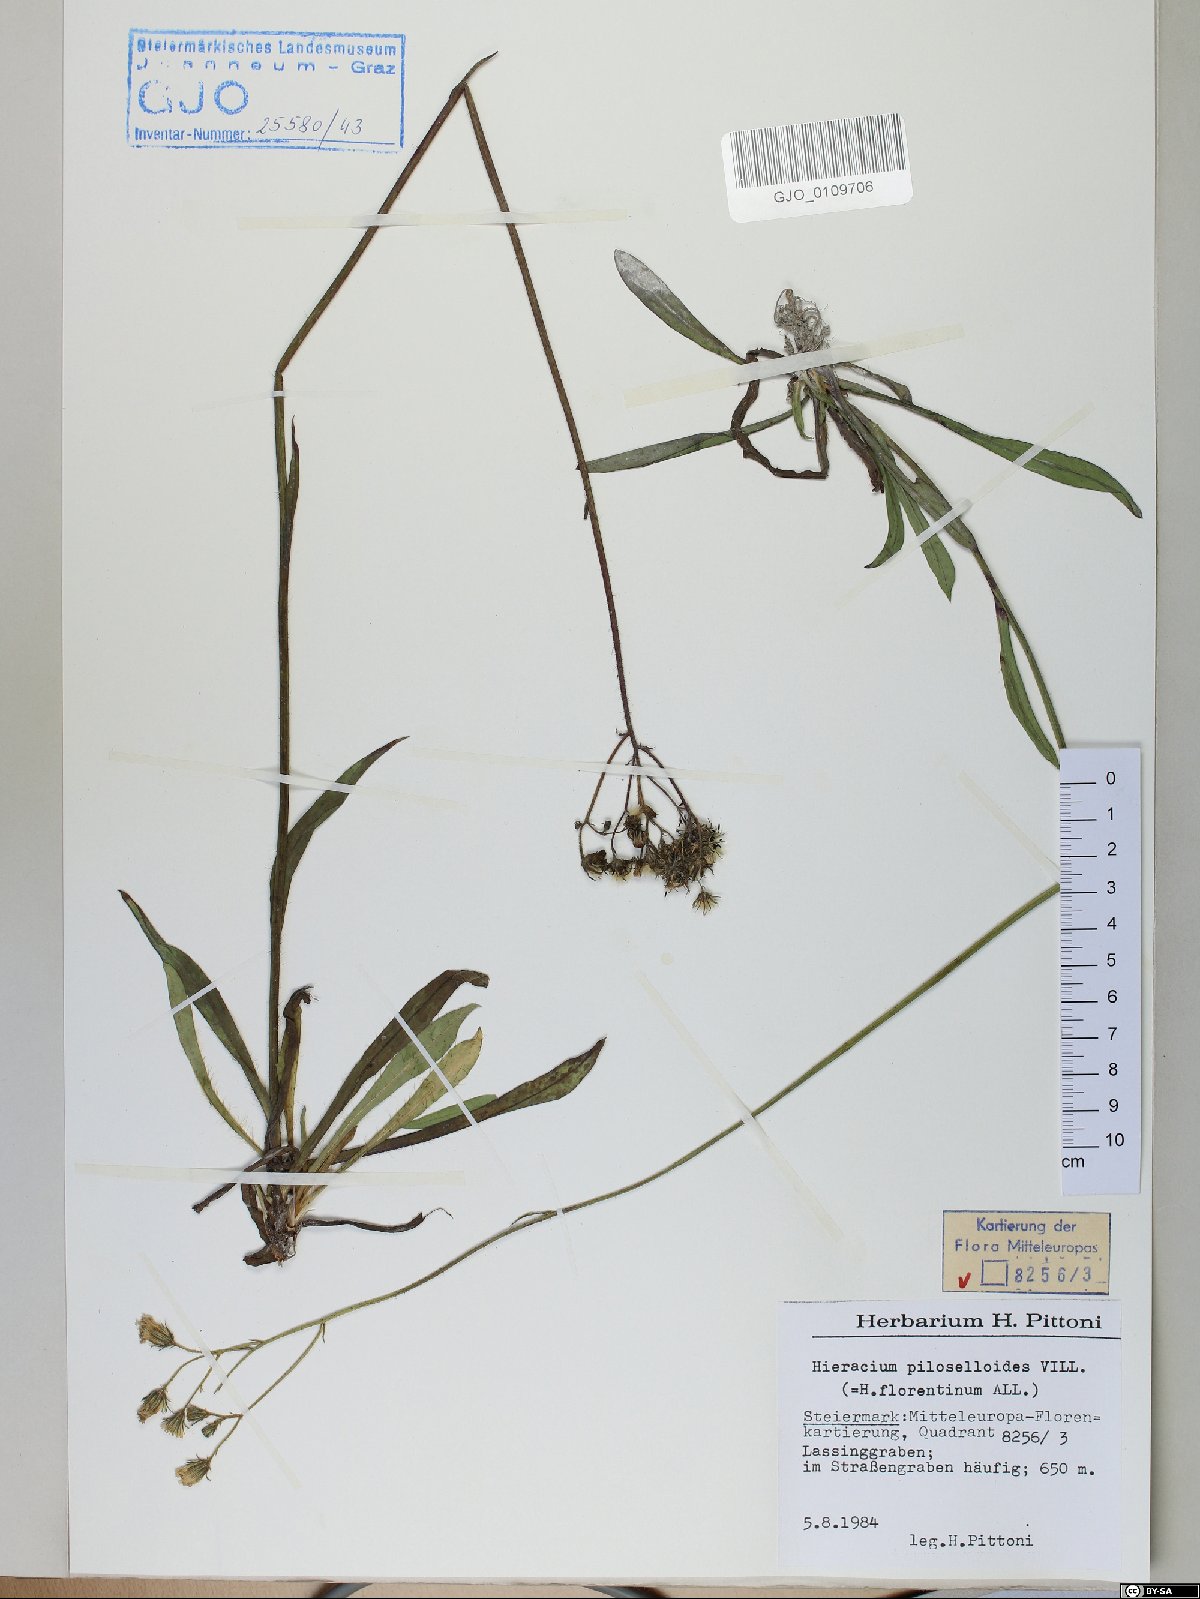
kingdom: Plantae
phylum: Tracheophyta
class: Magnoliopsida
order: Asterales
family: Asteraceae
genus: Pilosella
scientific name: Pilosella piloselloides
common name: Glaucous king-devil
